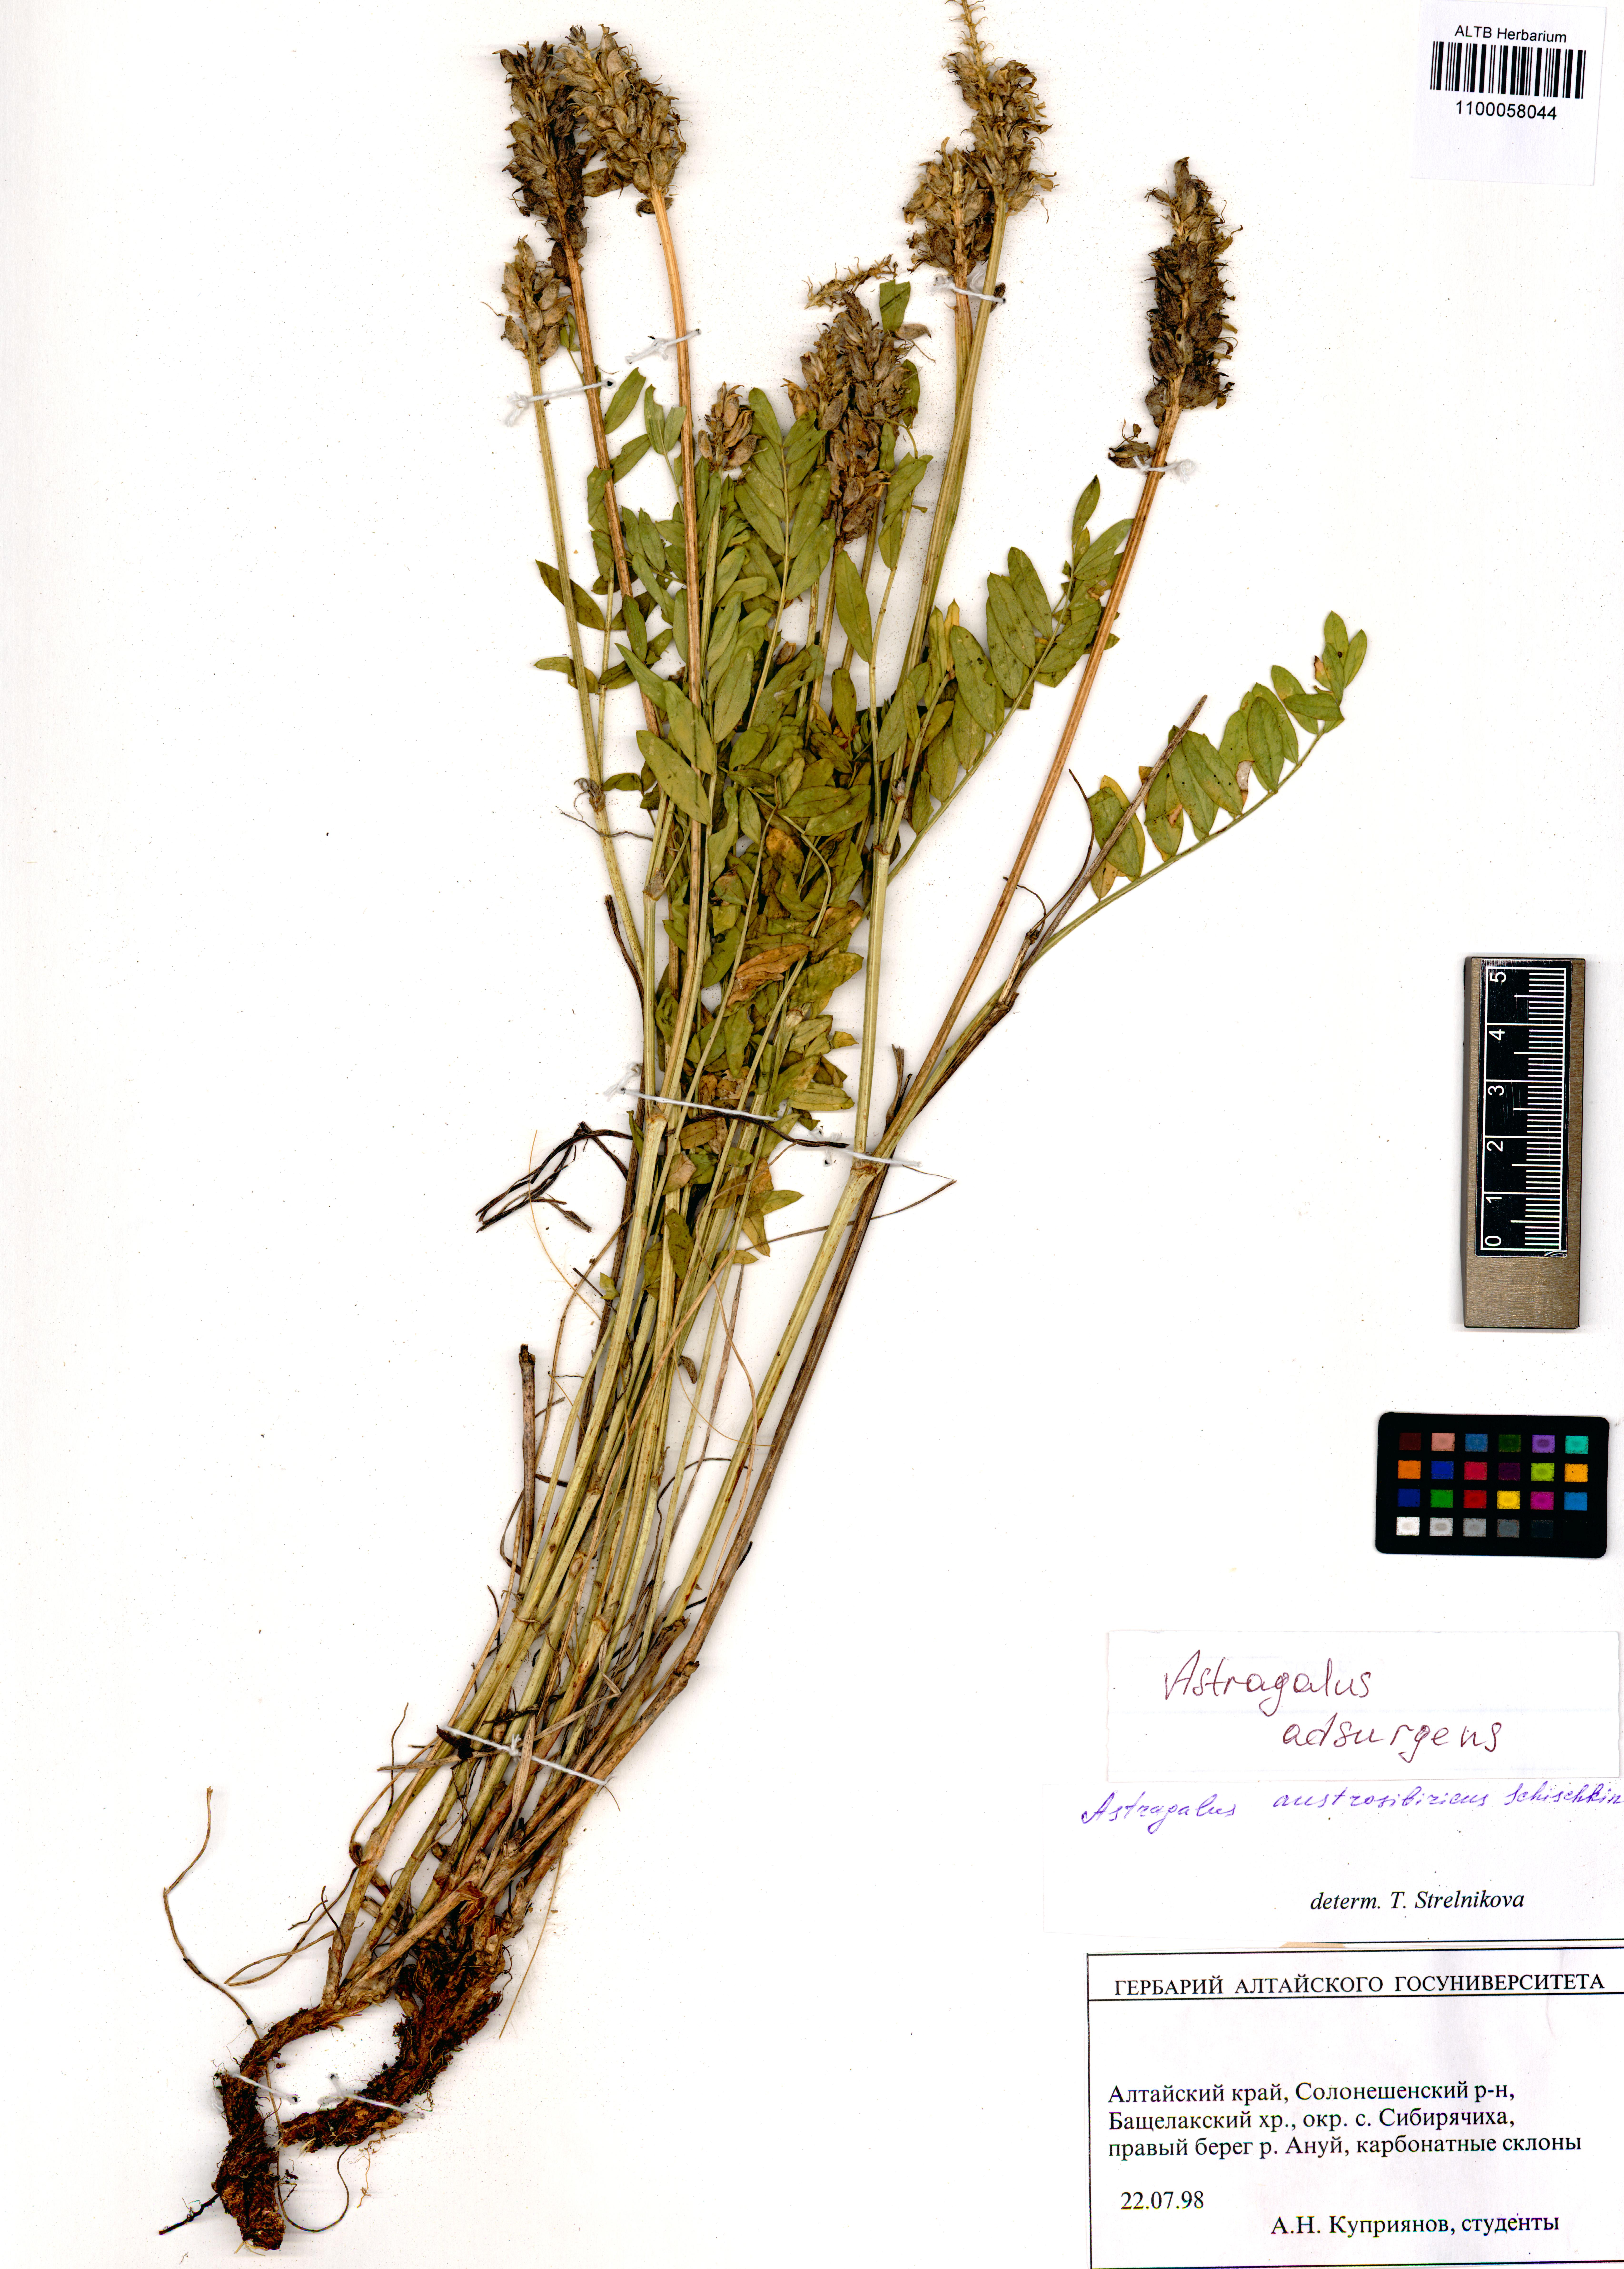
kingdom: Plantae
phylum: Tracheophyta
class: Magnoliopsida
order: Fabales
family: Fabaceae
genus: Astragalus
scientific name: Astragalus laxmannii
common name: Laxmann's milk-vetch
